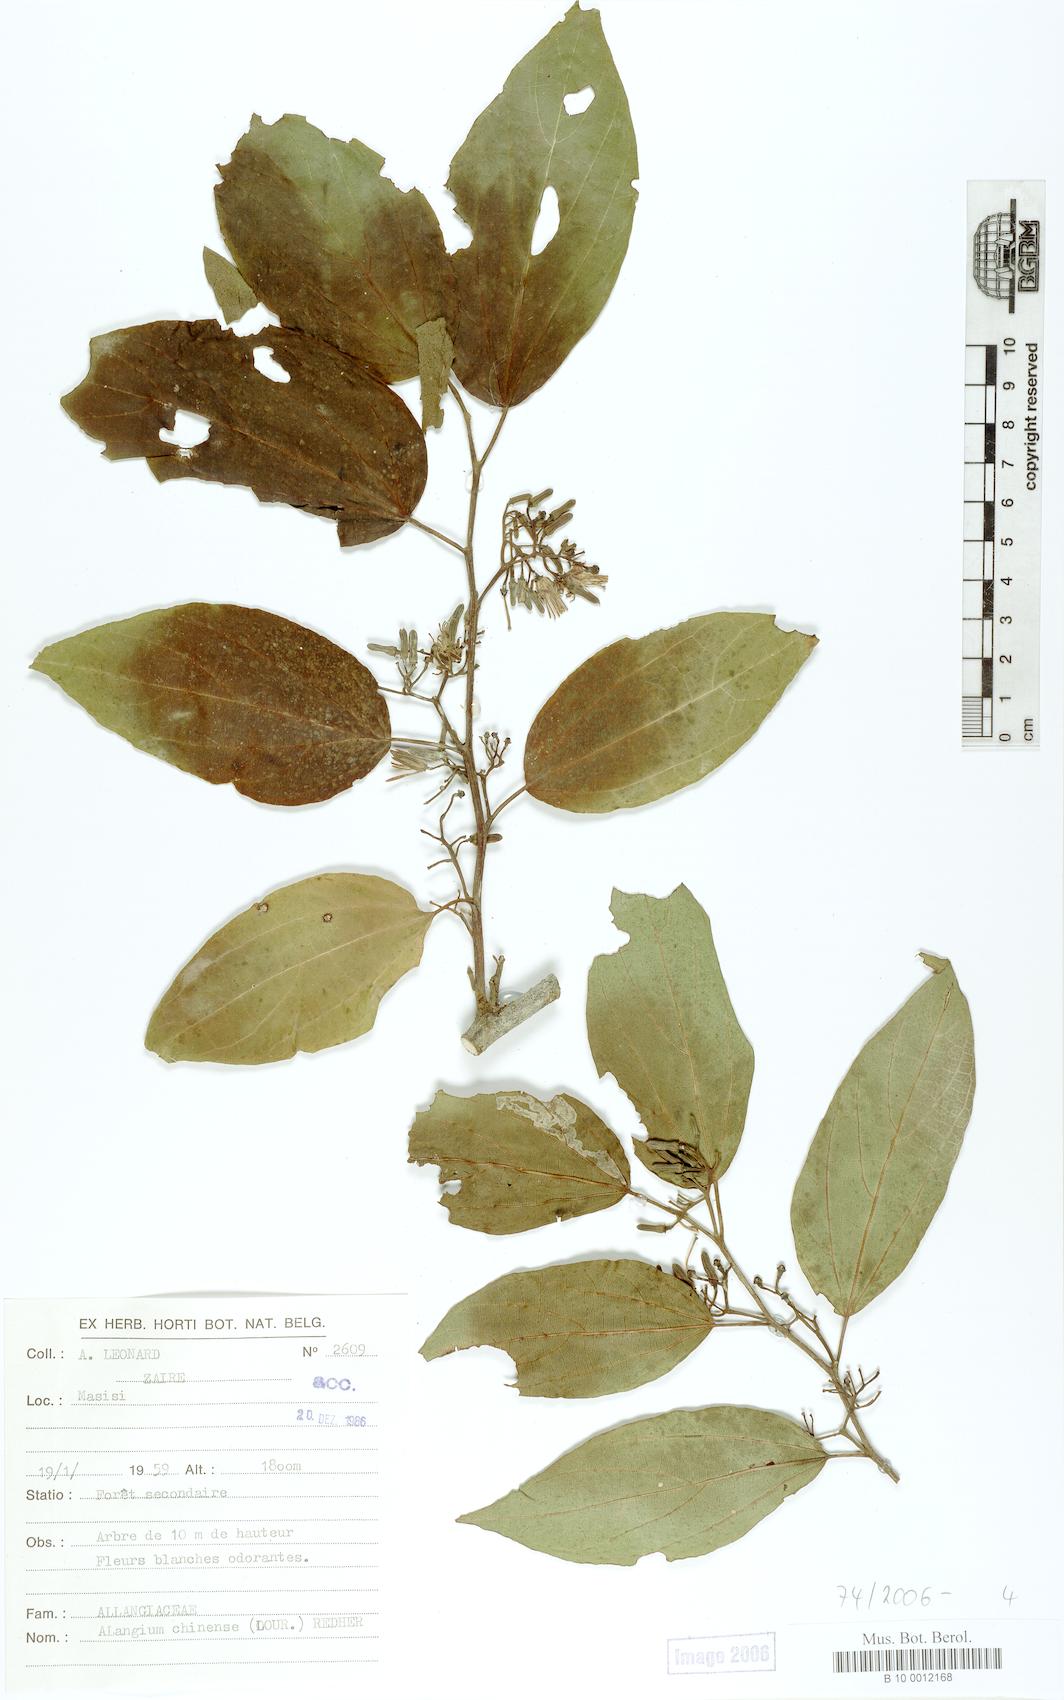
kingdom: Plantae
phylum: Tracheophyta
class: Magnoliopsida
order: Cornales
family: Cornaceae
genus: Alangium
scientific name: Alangium chinense
